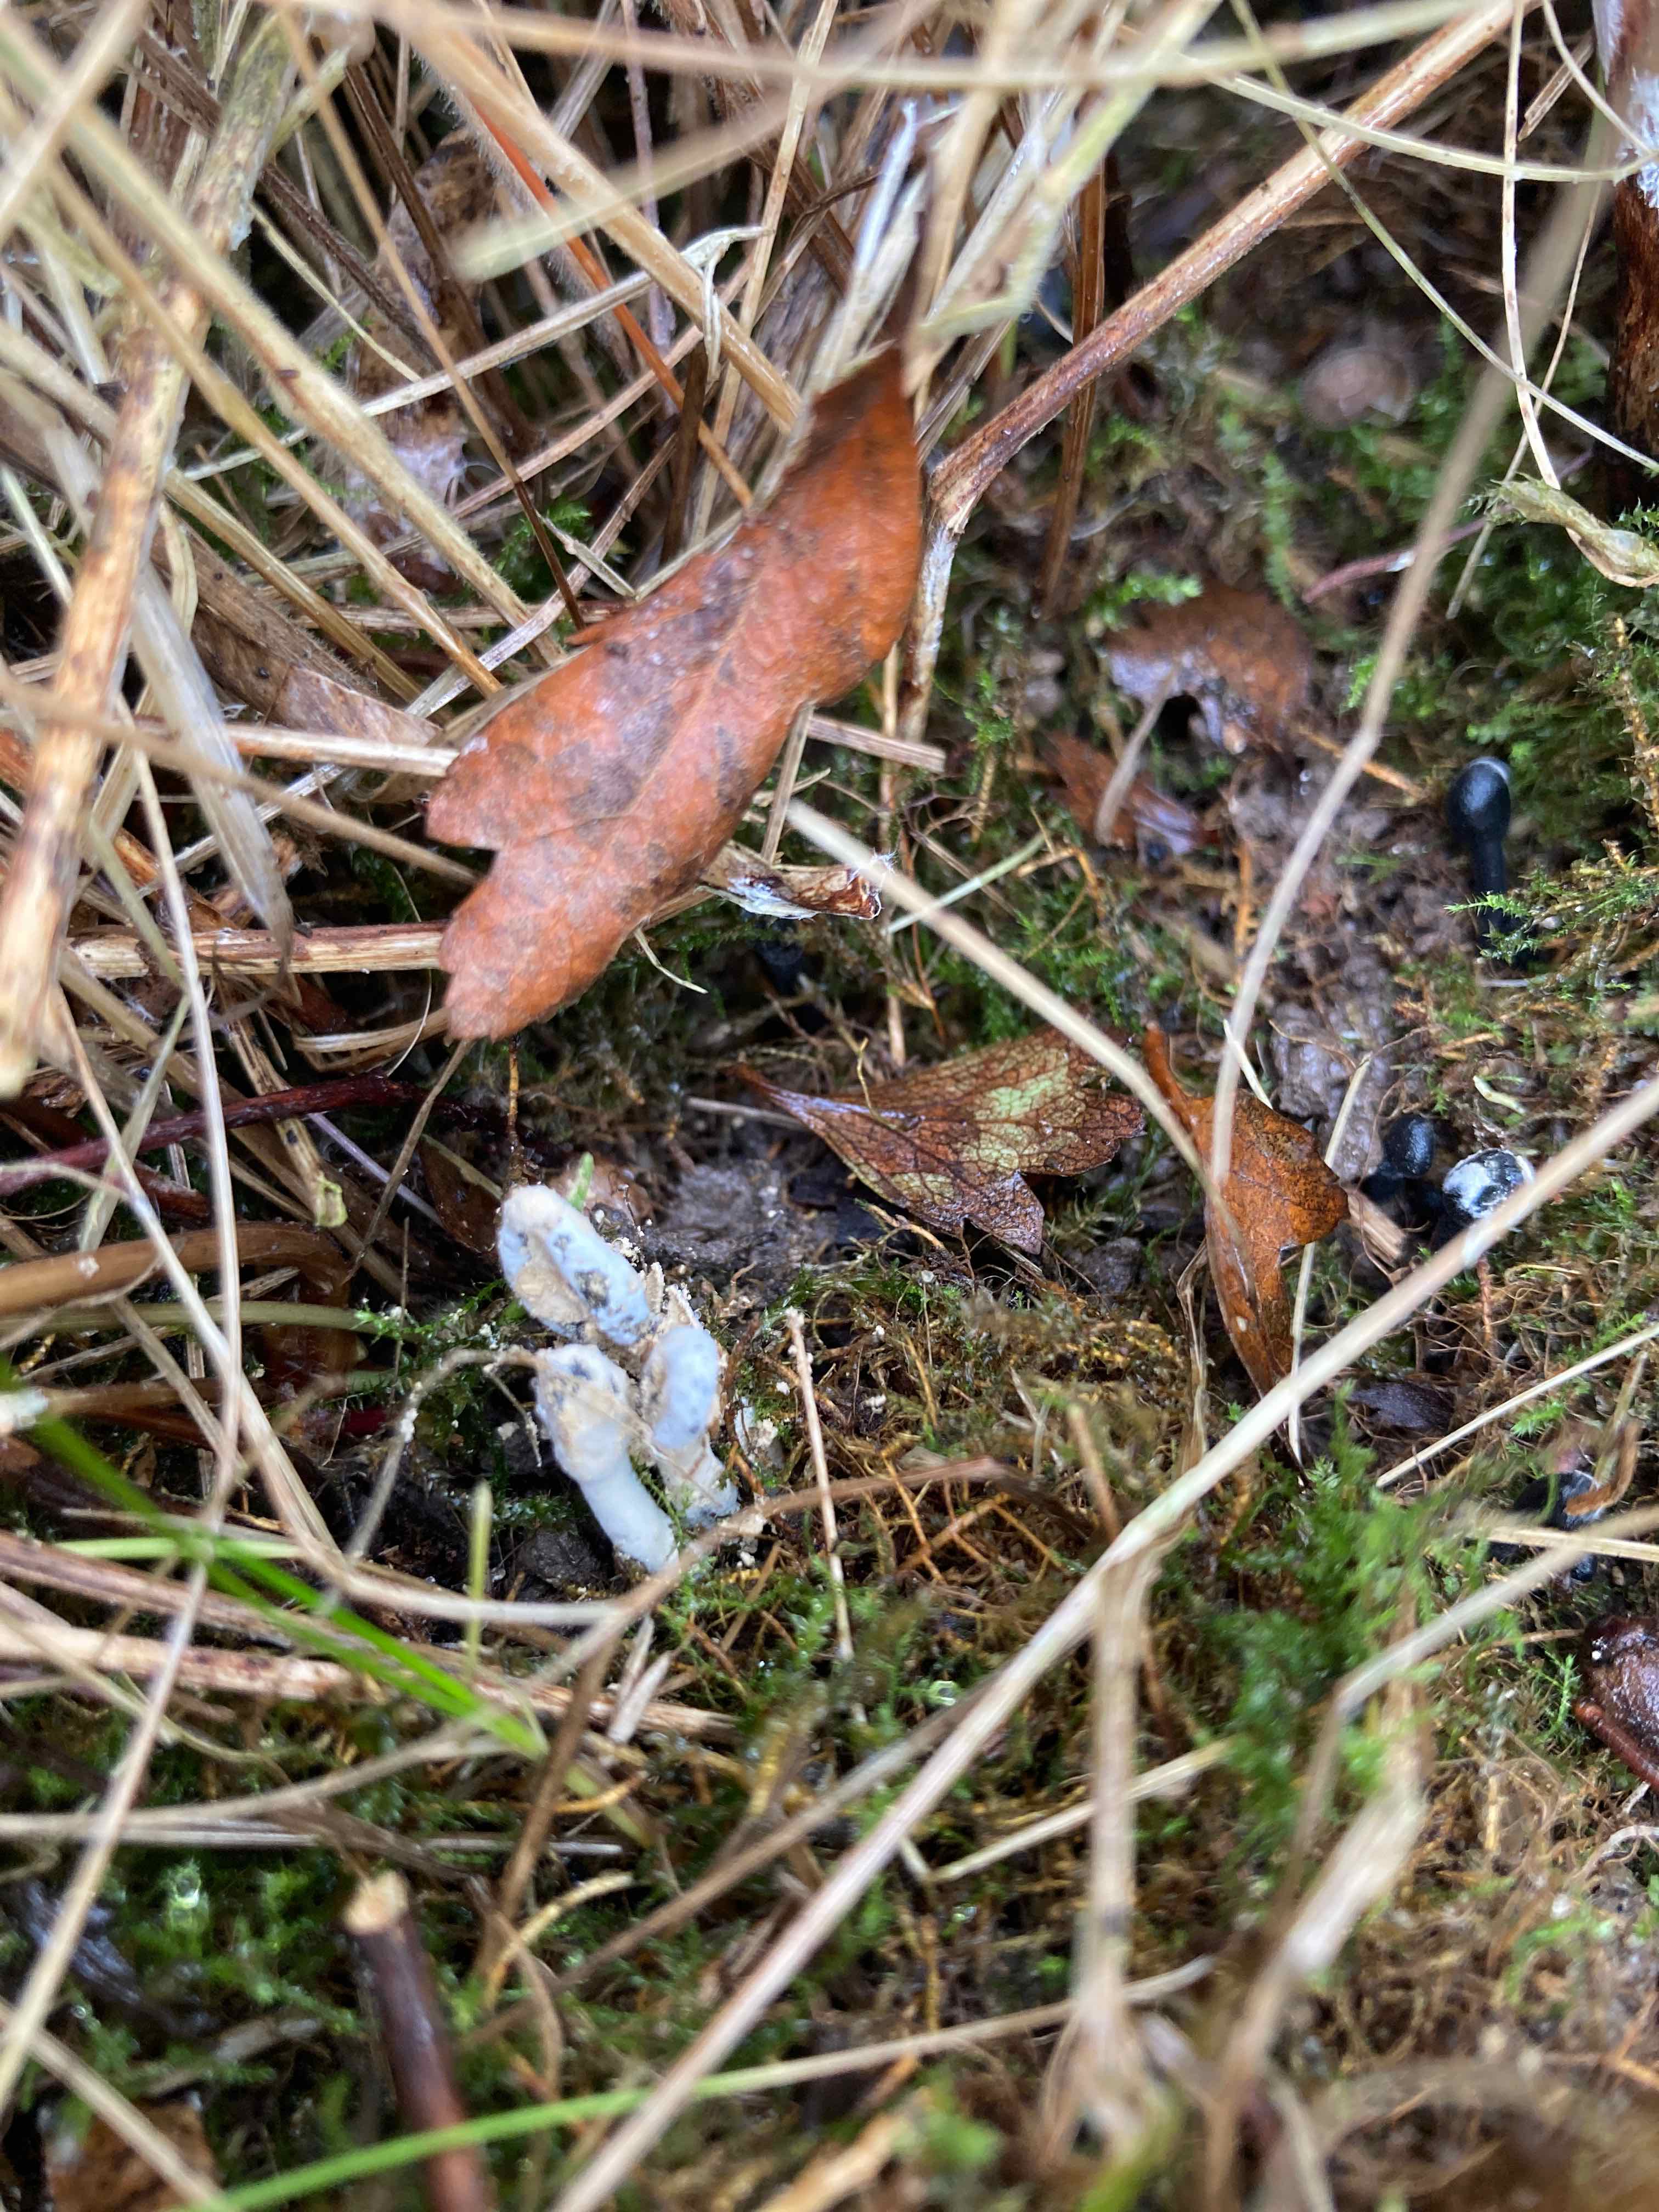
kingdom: Fungi
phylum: Ascomycota
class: Sordariomycetes
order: Hypocreales
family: Hypocreaceae
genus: Hypomyces
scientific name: Hypomyces papulasporae
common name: jordtunge-snylteskorpe
